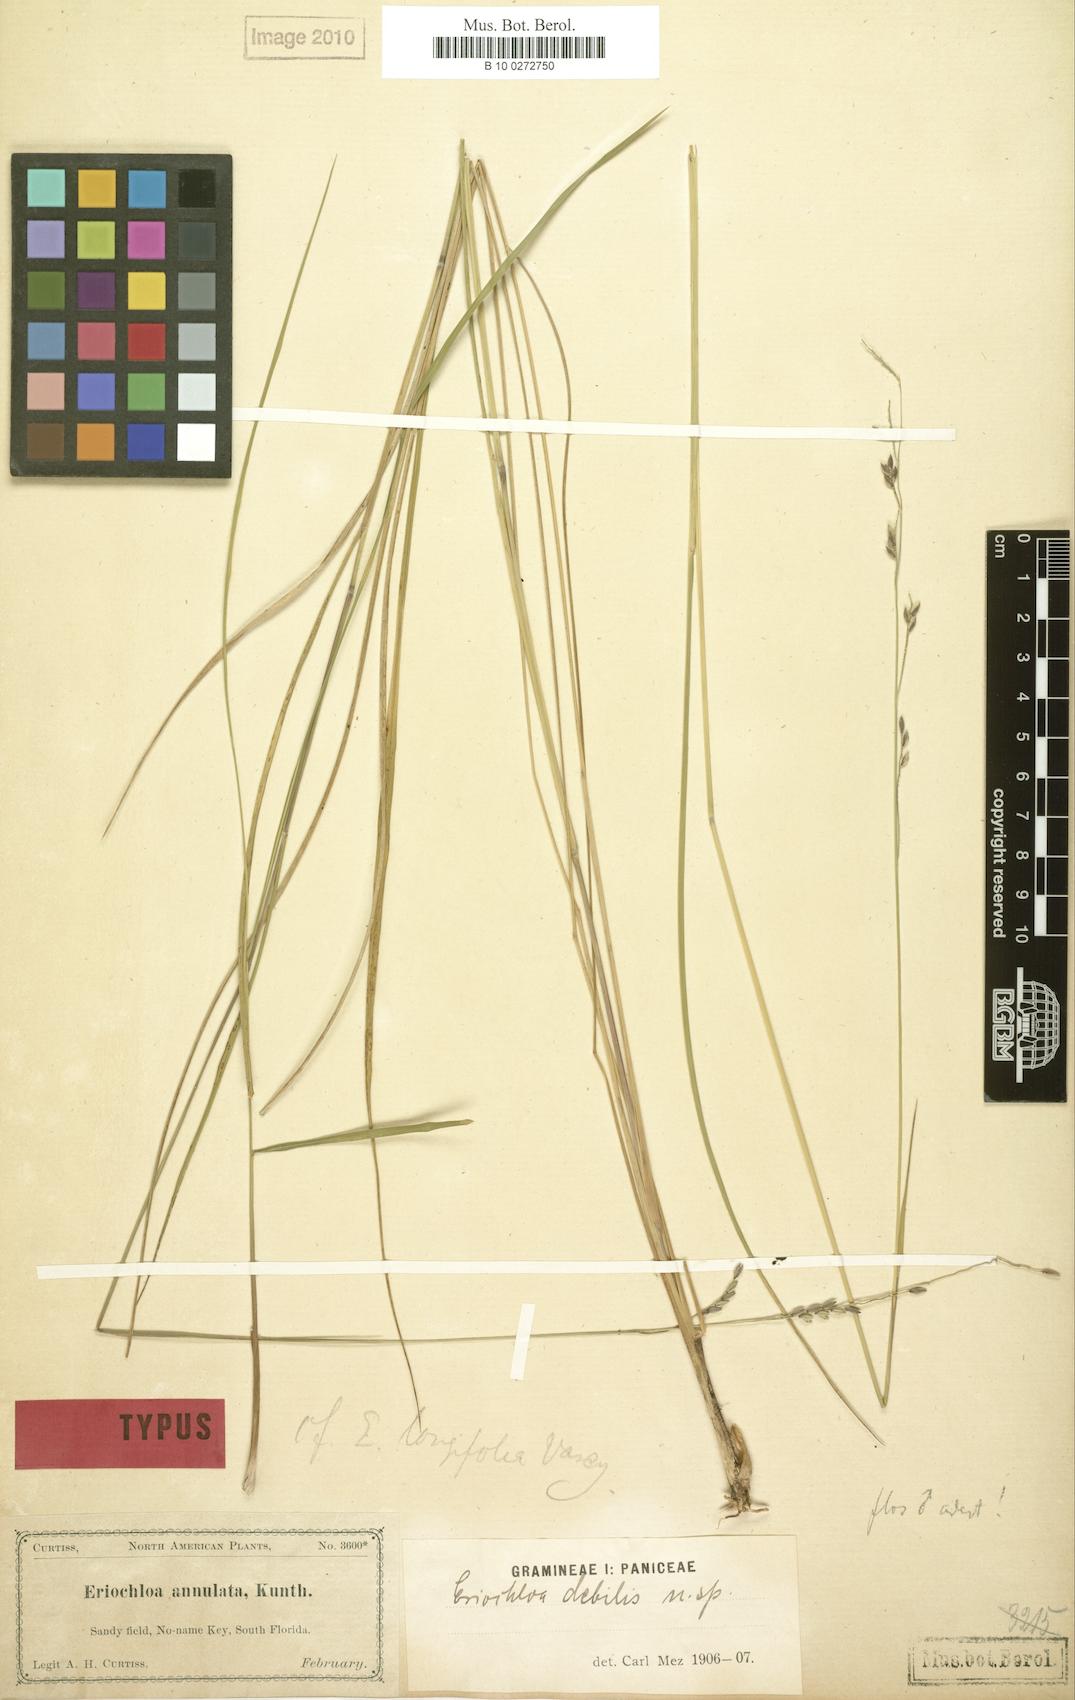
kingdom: Plantae
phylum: Tracheophyta
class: Liliopsida
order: Poales
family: Poaceae
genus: Eriochloa
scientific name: Eriochloa michauxii
